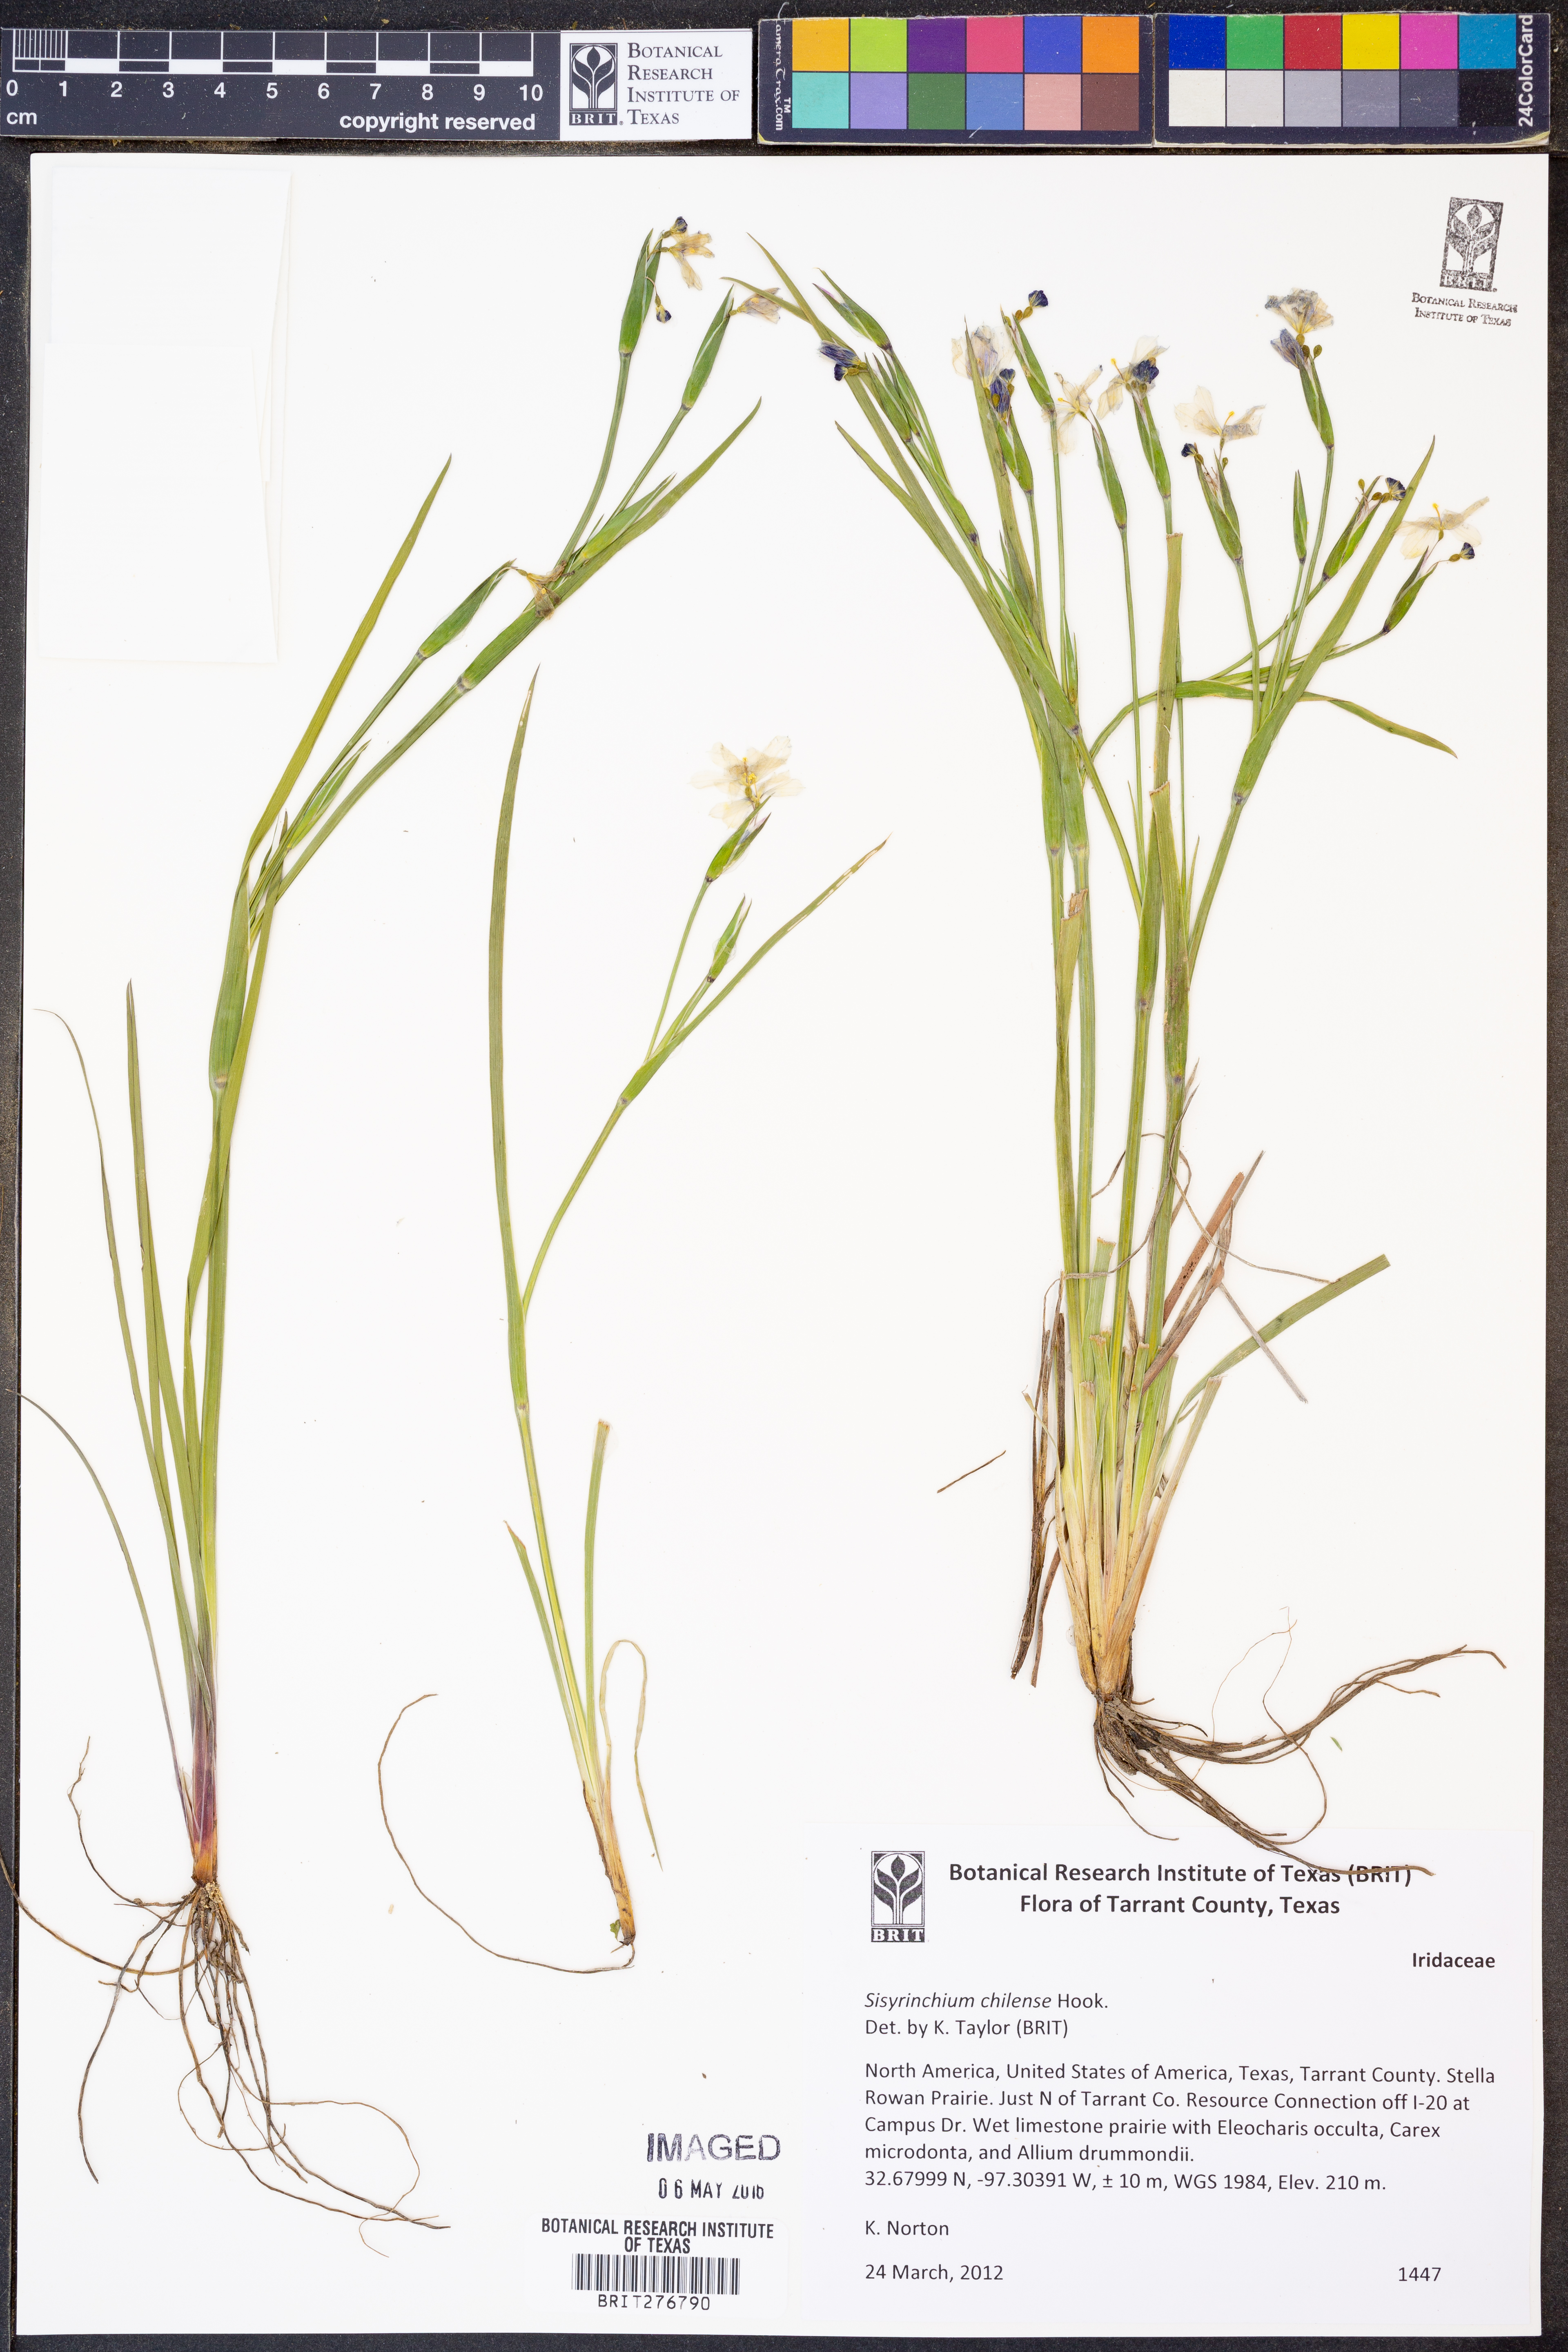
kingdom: Plantae
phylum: Tracheophyta
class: Liliopsida
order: Asparagales
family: Iridaceae
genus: Sisyrinchium
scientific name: Sisyrinchium chilense
